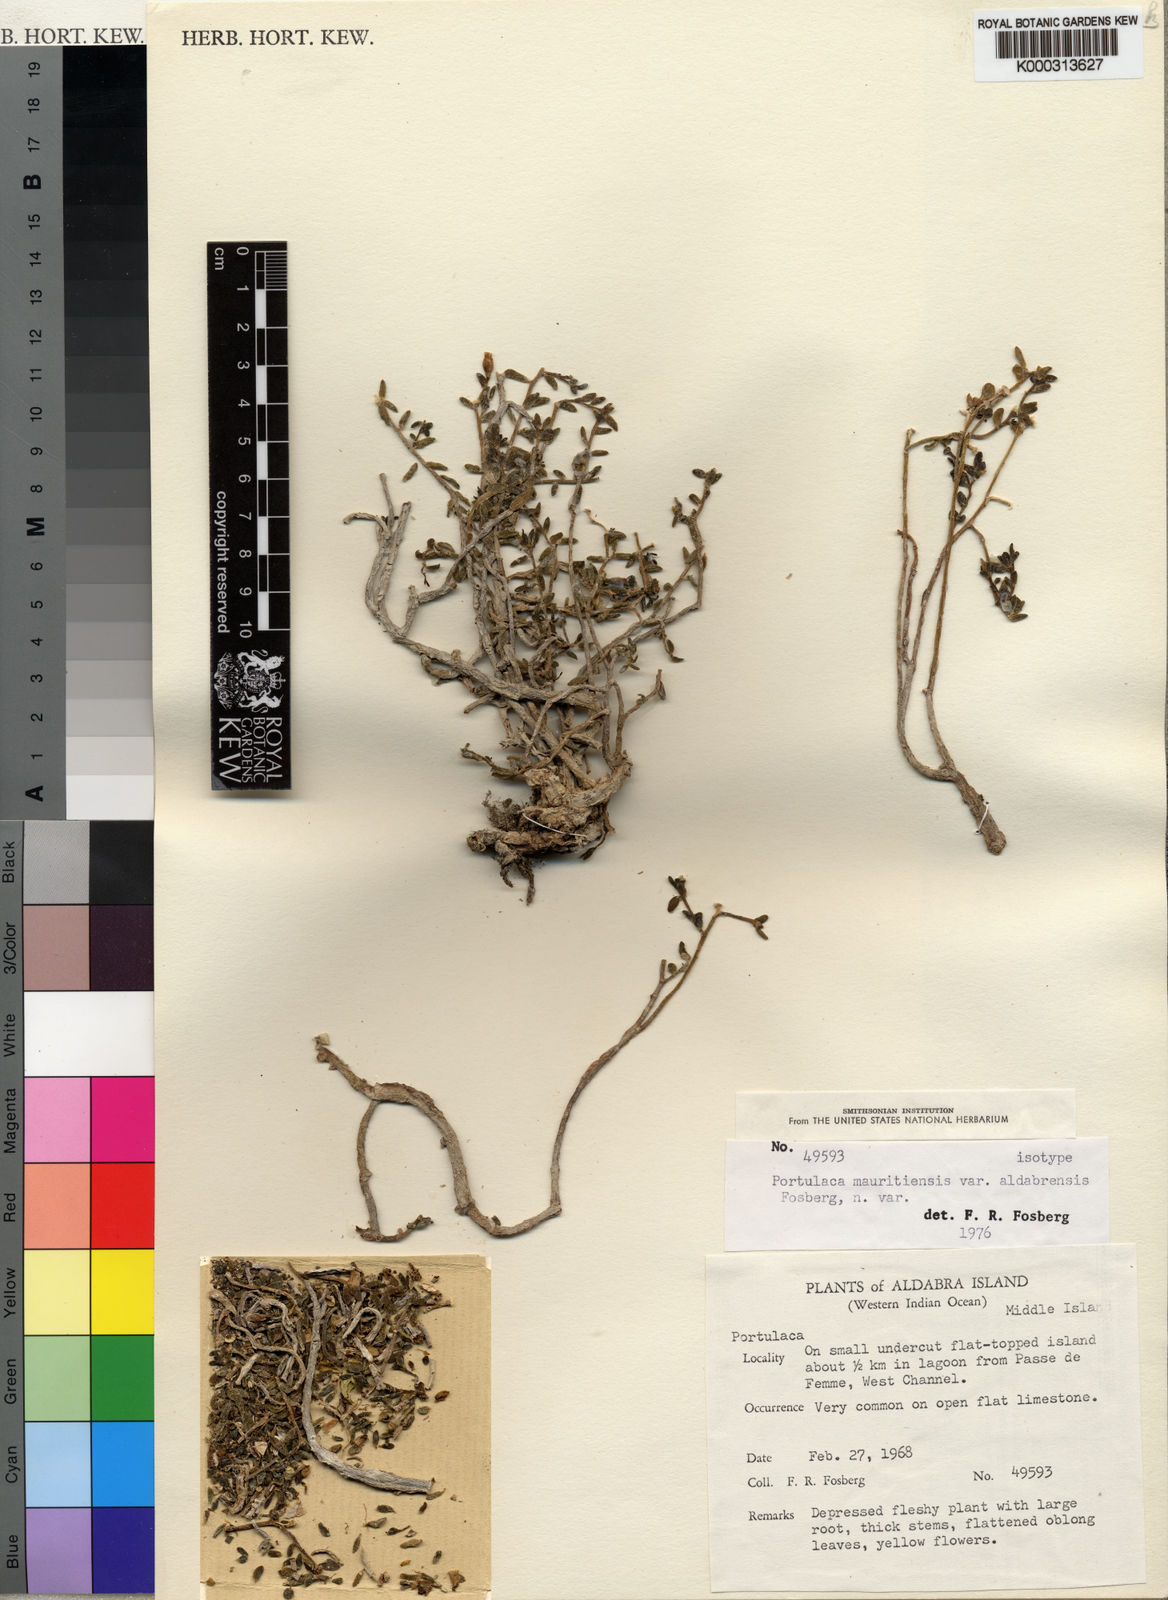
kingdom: Plantae
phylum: Tracheophyta
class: Magnoliopsida
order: Caryophyllales
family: Portulacaceae
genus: Portulaca
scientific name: Portulaca mauritiensis
